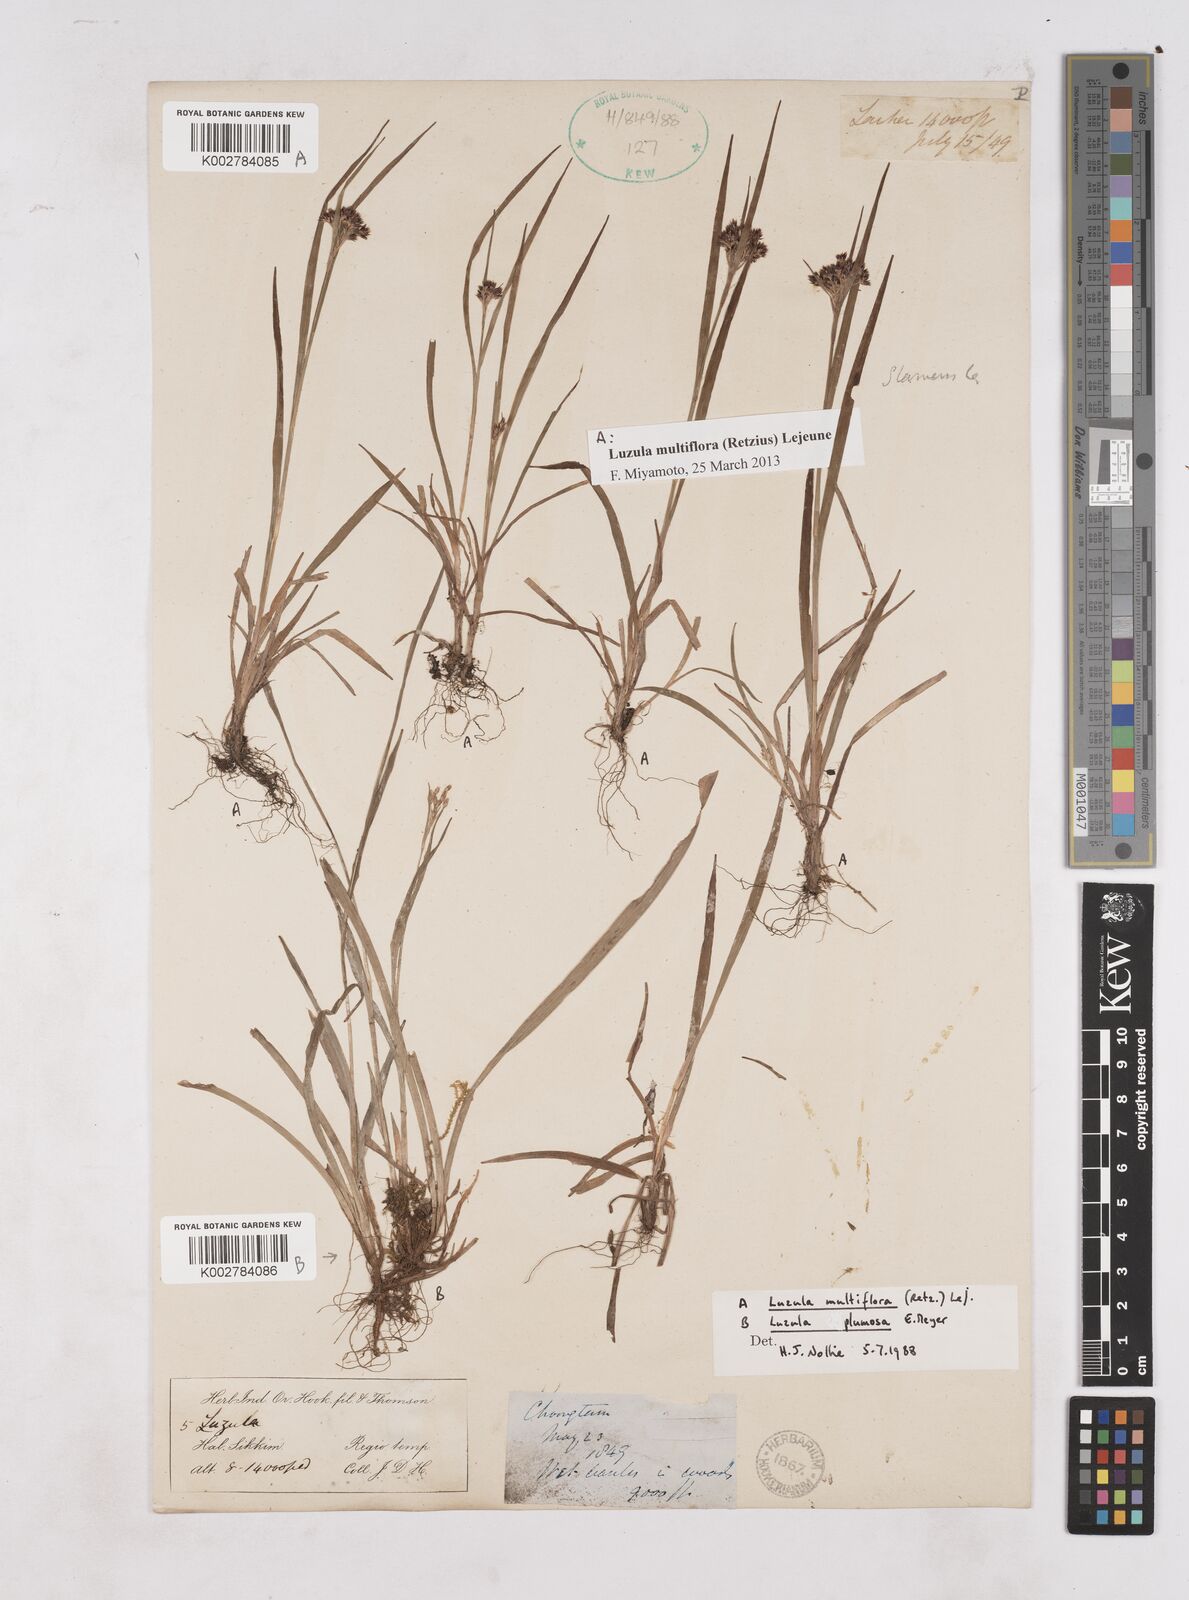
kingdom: Plantae
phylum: Tracheophyta
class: Liliopsida
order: Poales
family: Juncaceae
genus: Luzula
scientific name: Luzula campestris
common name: Field wood-rush
